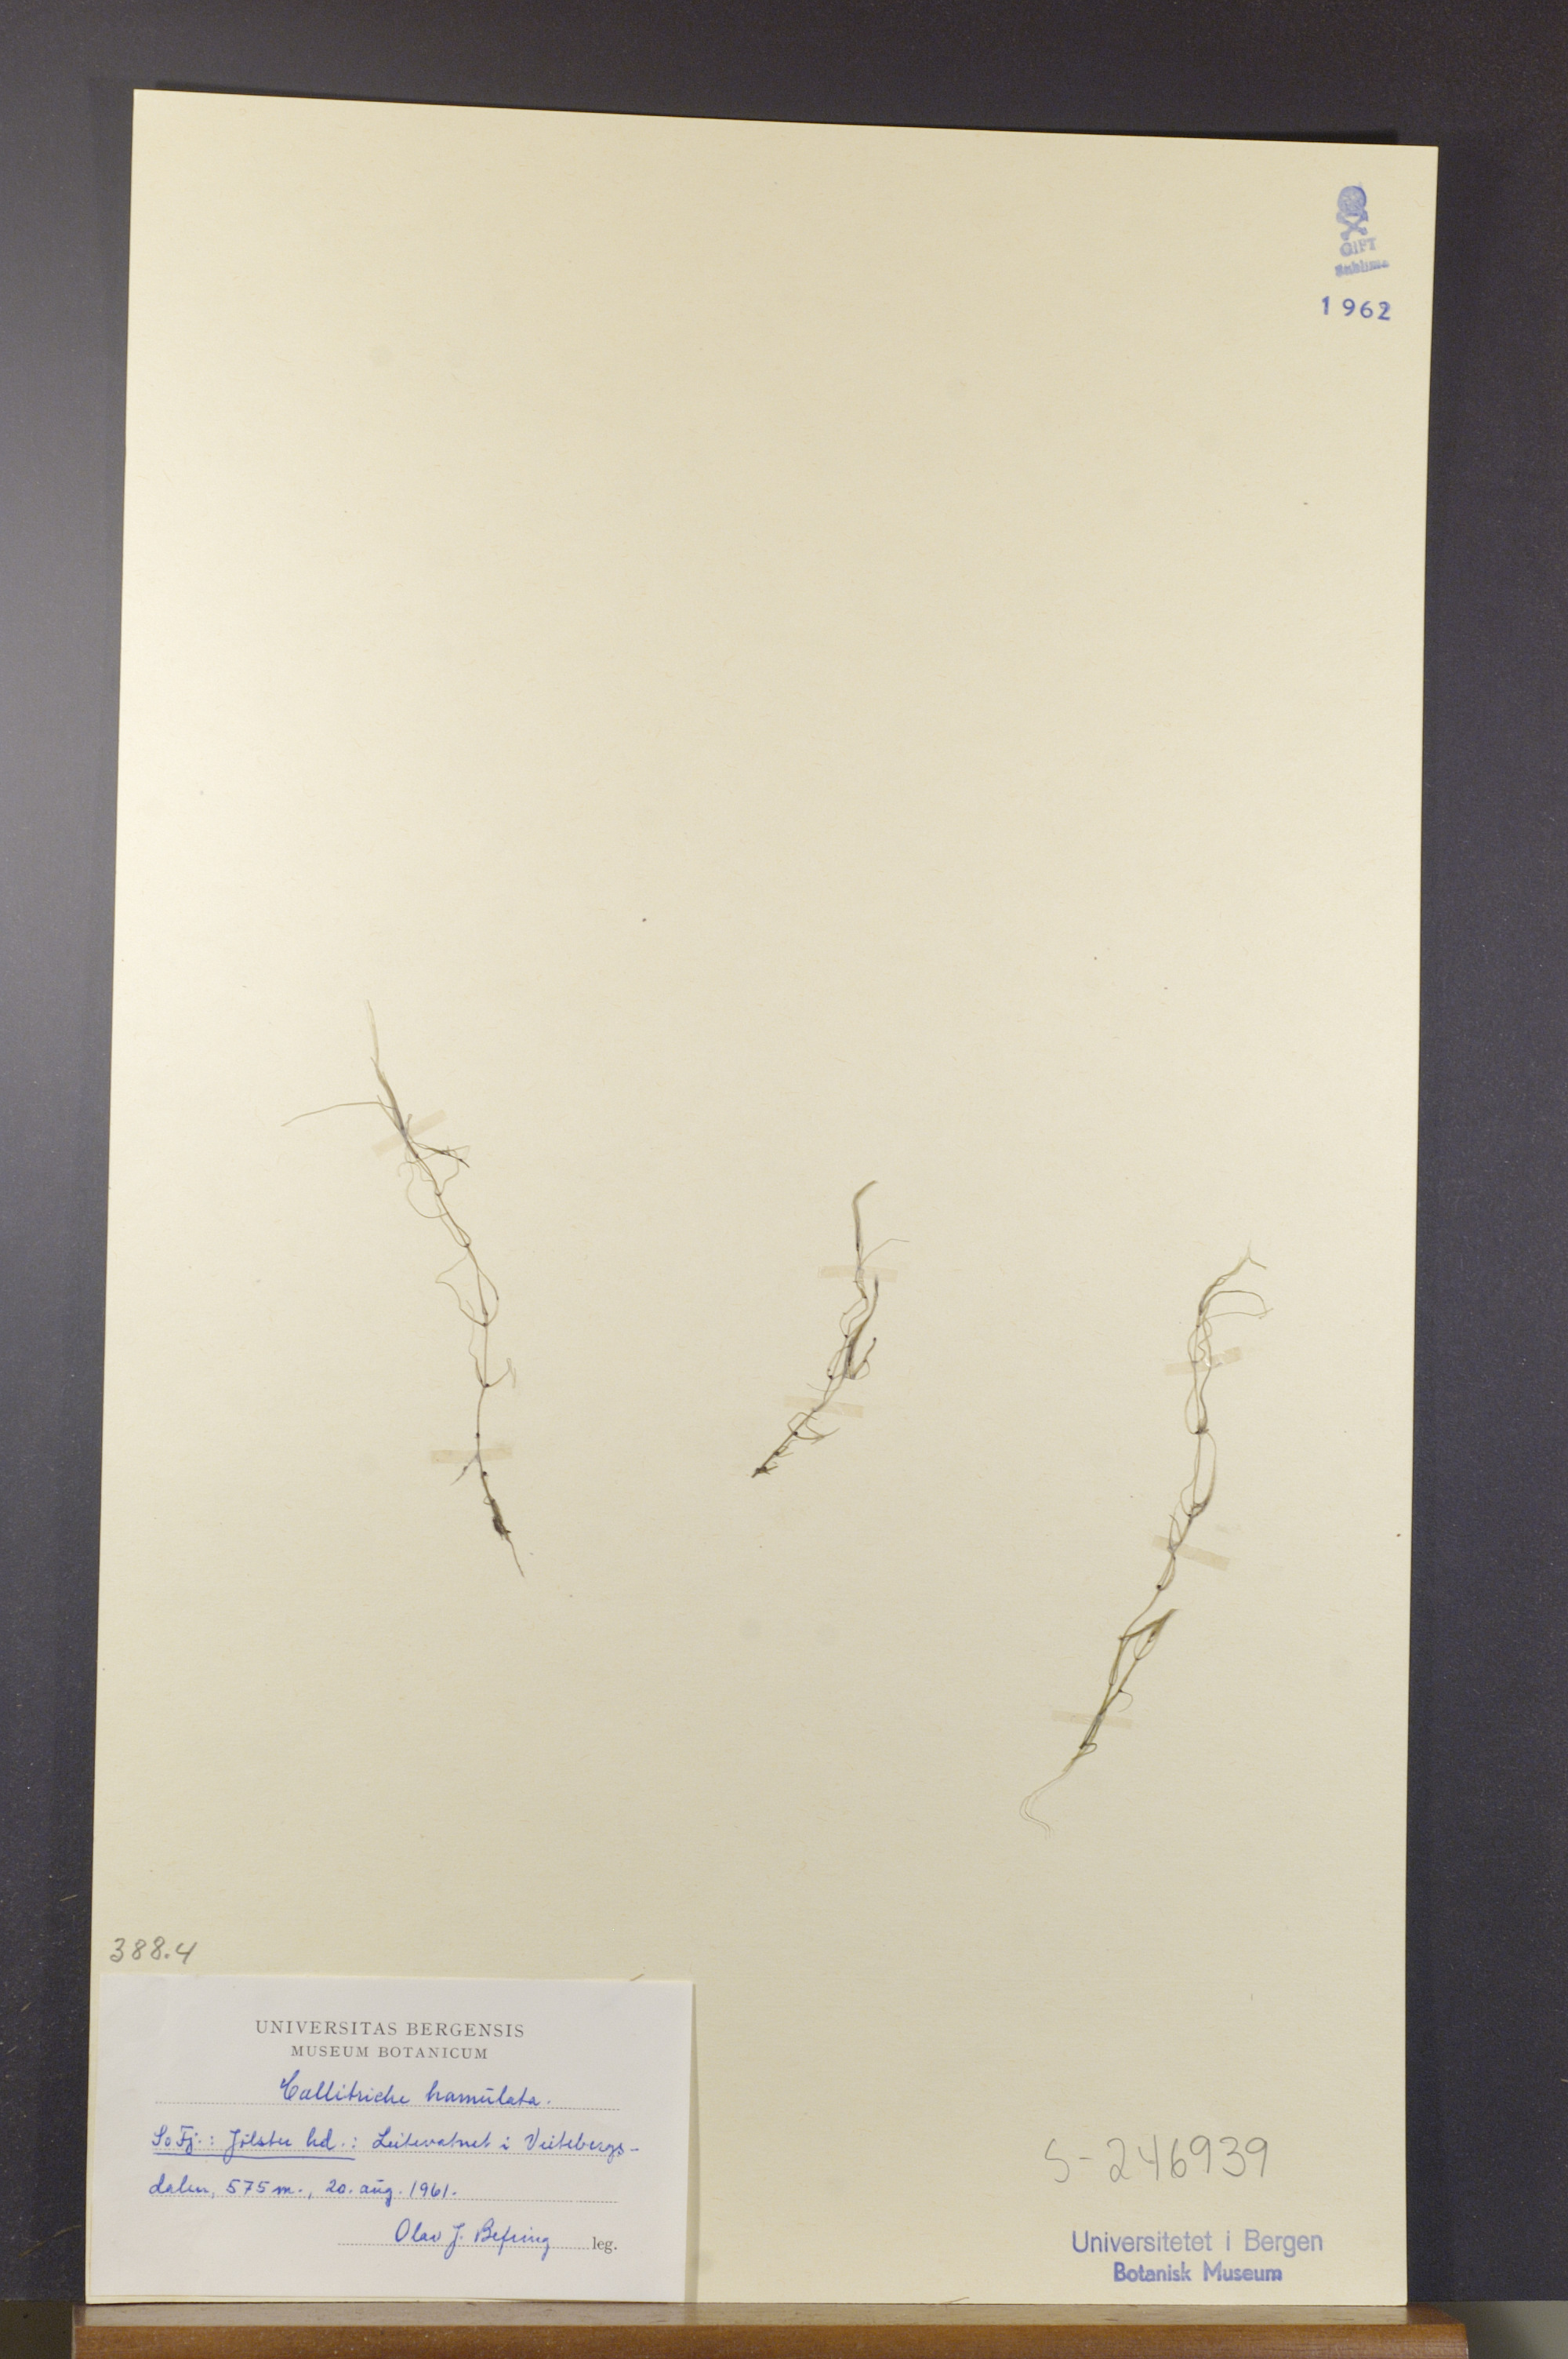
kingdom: Plantae
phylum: Tracheophyta
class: Magnoliopsida
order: Lamiales
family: Plantaginaceae
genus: Callitriche
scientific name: Callitriche hamulata
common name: Intermediate water-starwort
